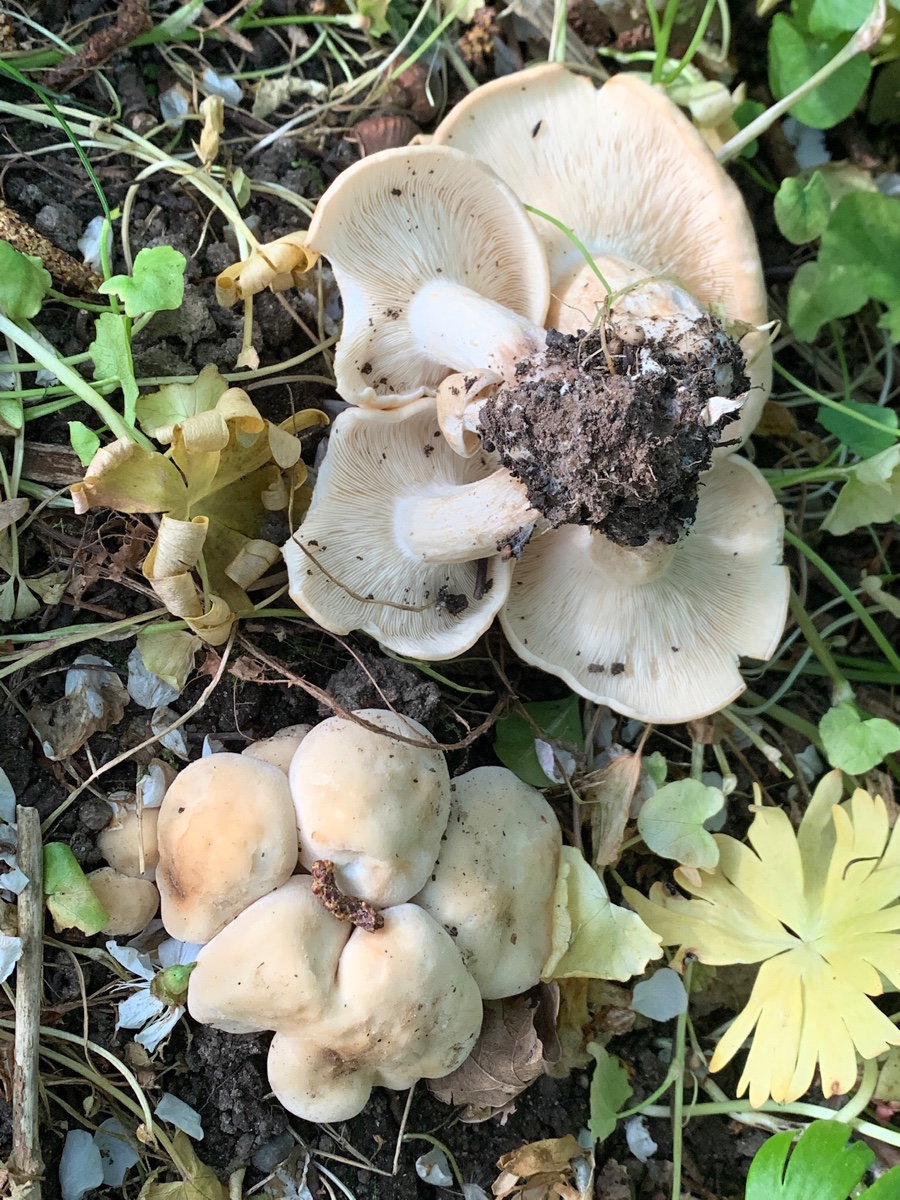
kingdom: Fungi
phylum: Basidiomycota
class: Agaricomycetes
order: Agaricales
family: Lyophyllaceae
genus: Calocybe
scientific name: Calocybe gambosa
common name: vårmusseron
